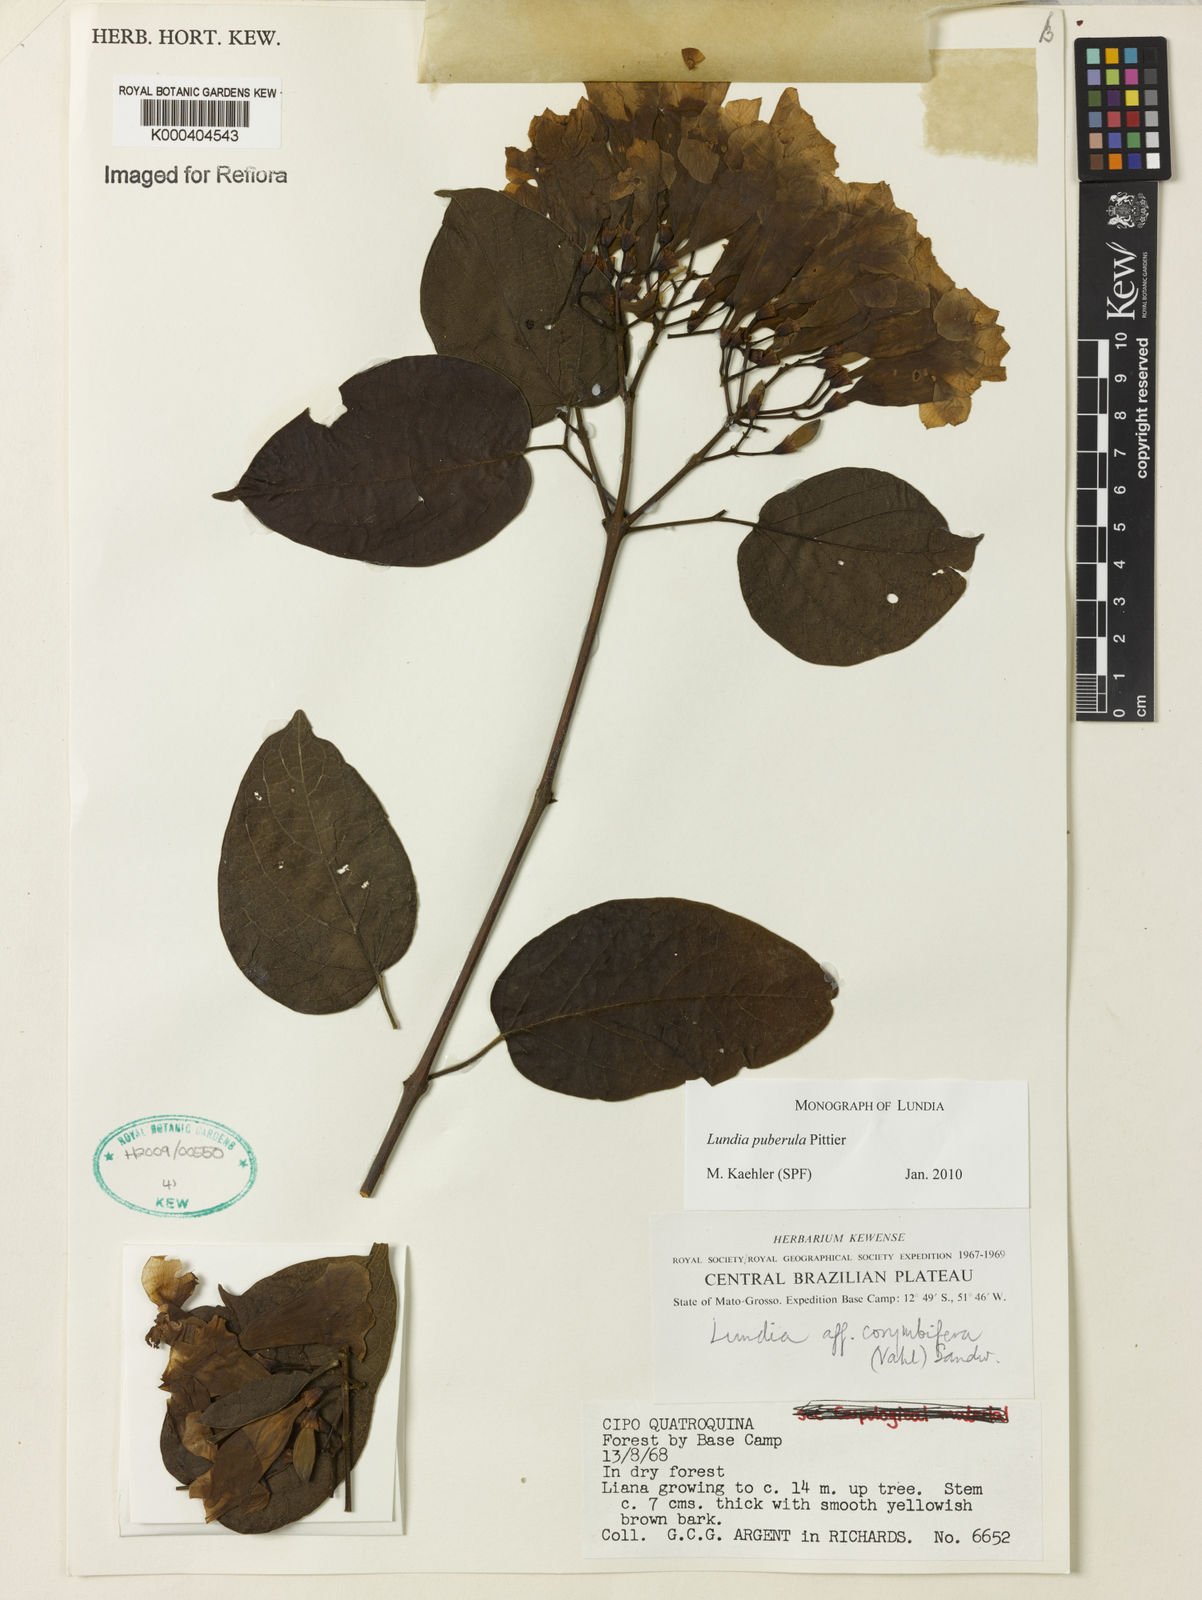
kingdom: Plantae
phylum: Tracheophyta
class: Magnoliopsida
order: Lamiales
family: Bignoniaceae
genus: Lundia
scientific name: Lundia puberula
